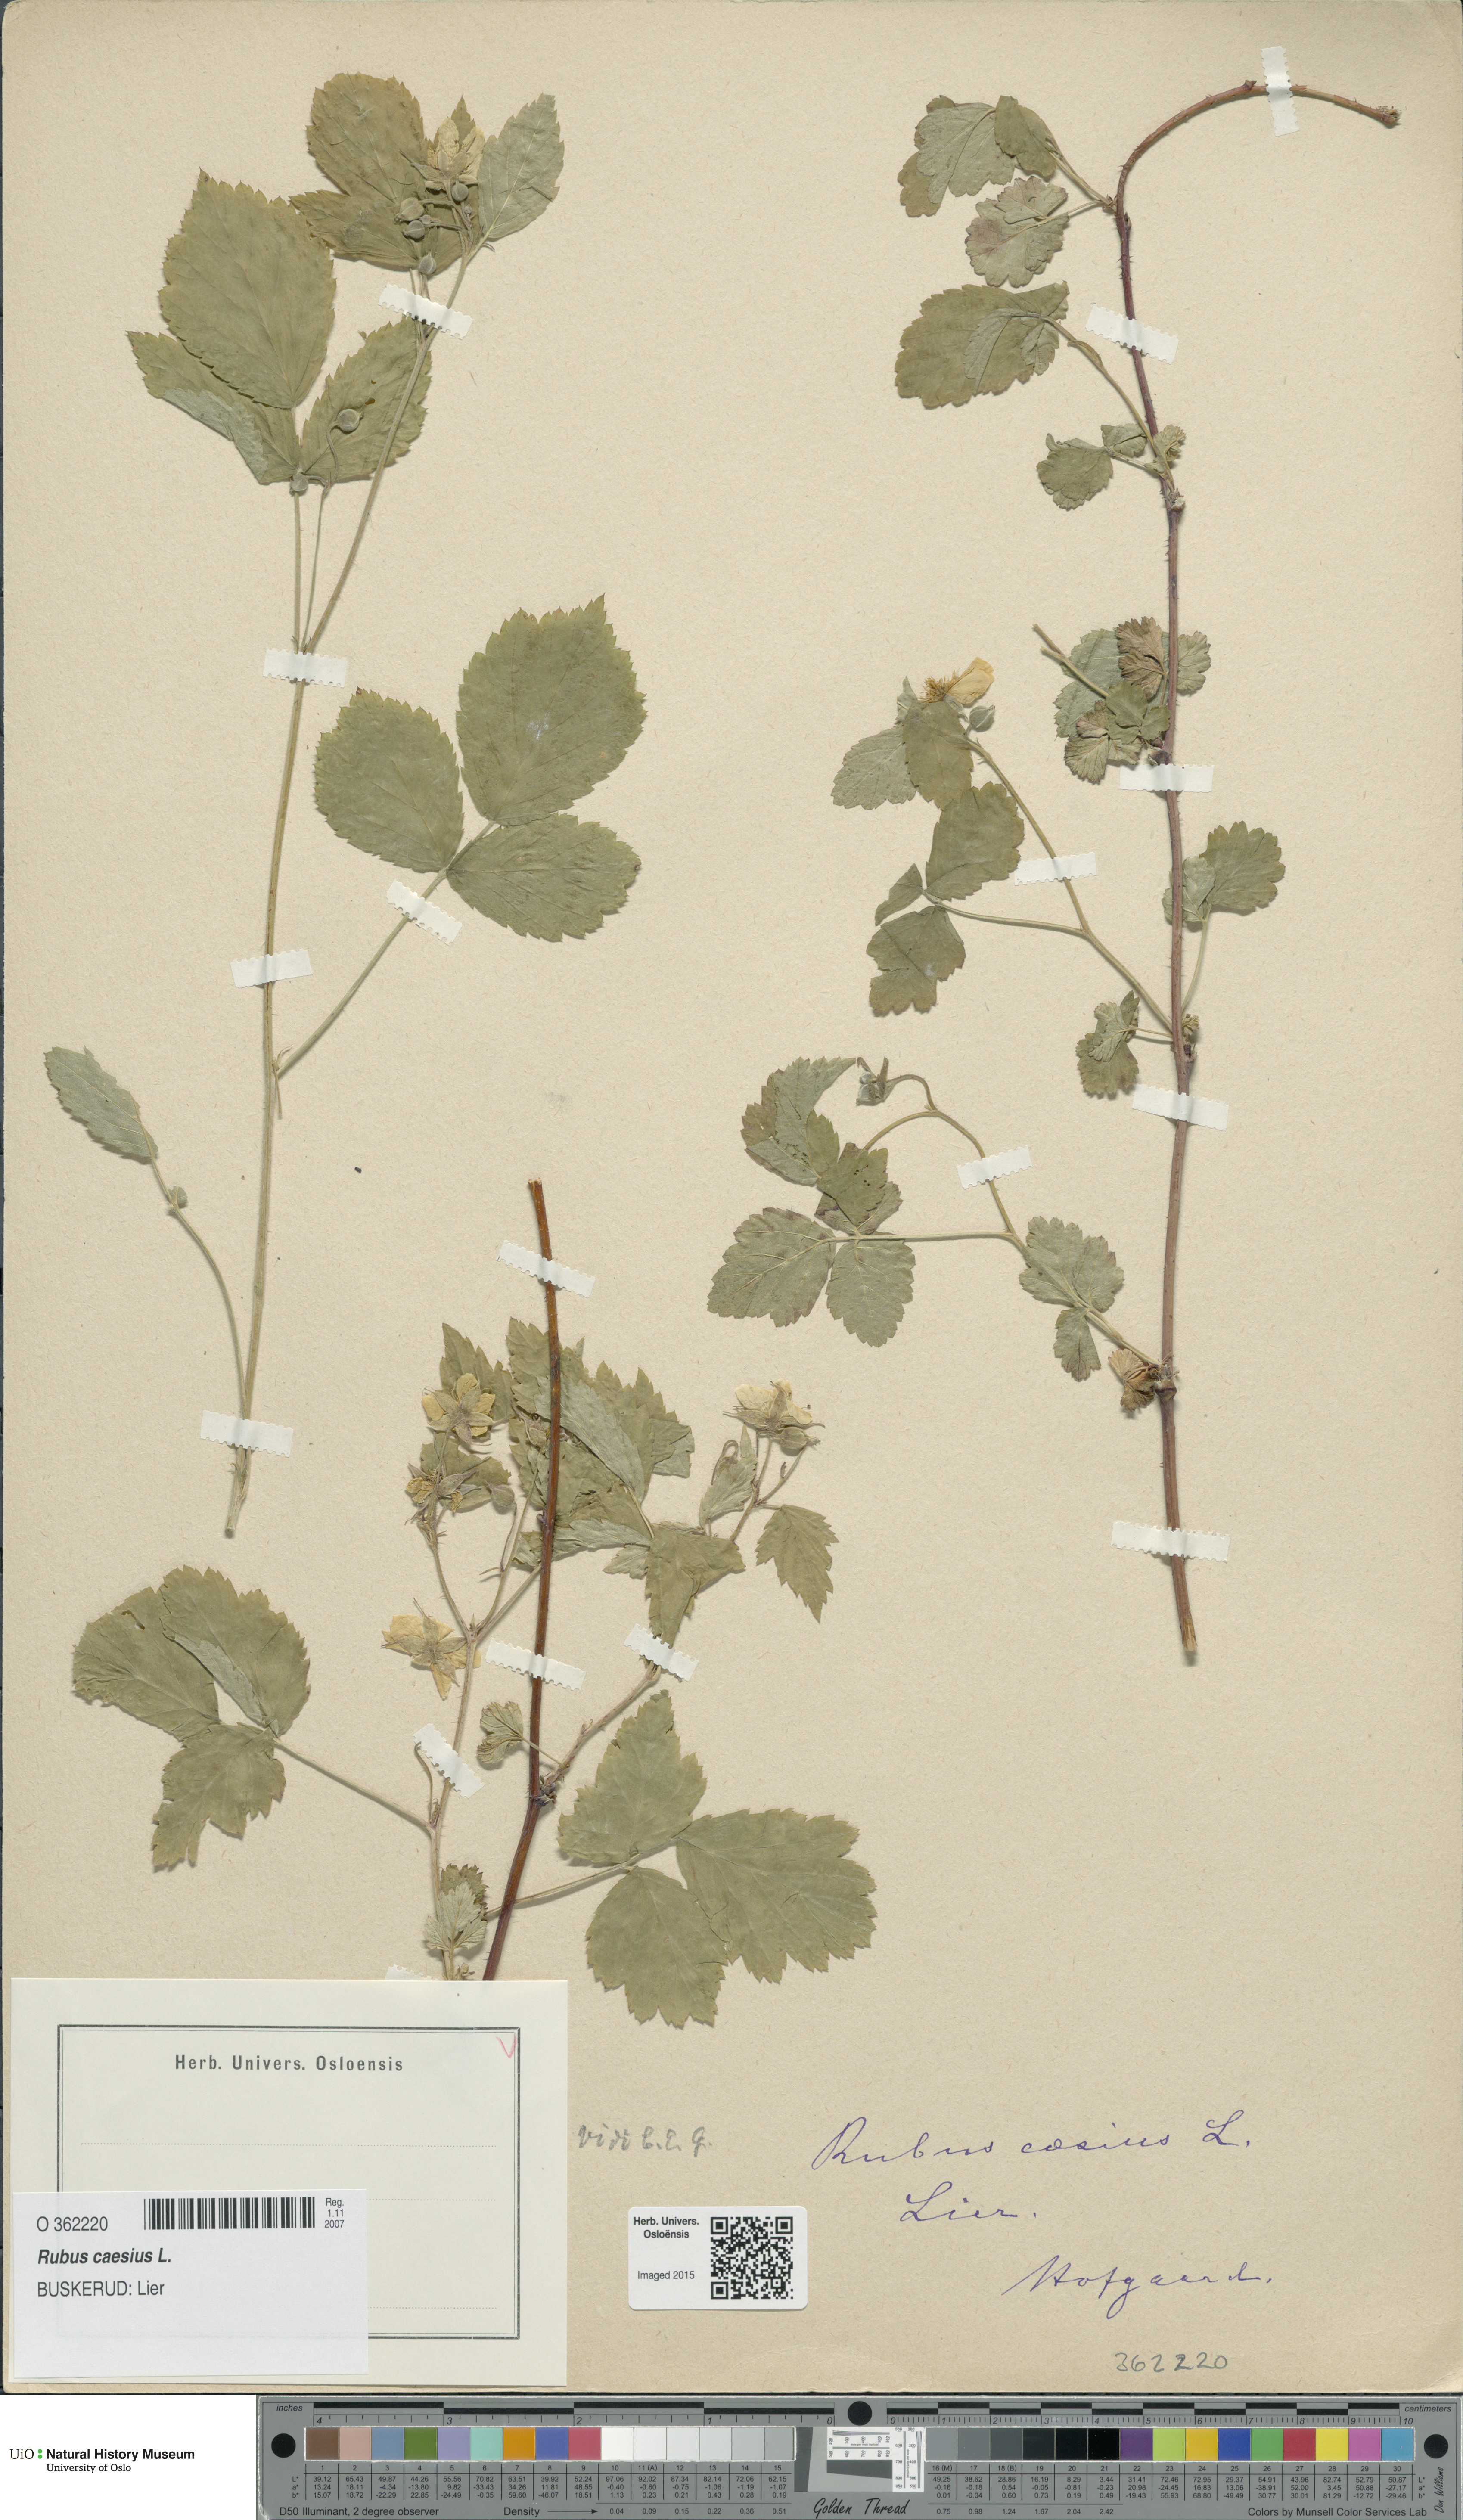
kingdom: Plantae
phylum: Tracheophyta
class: Magnoliopsida
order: Rosales
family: Rosaceae
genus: Rubus
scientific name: Rubus caesius
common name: Dewberry
